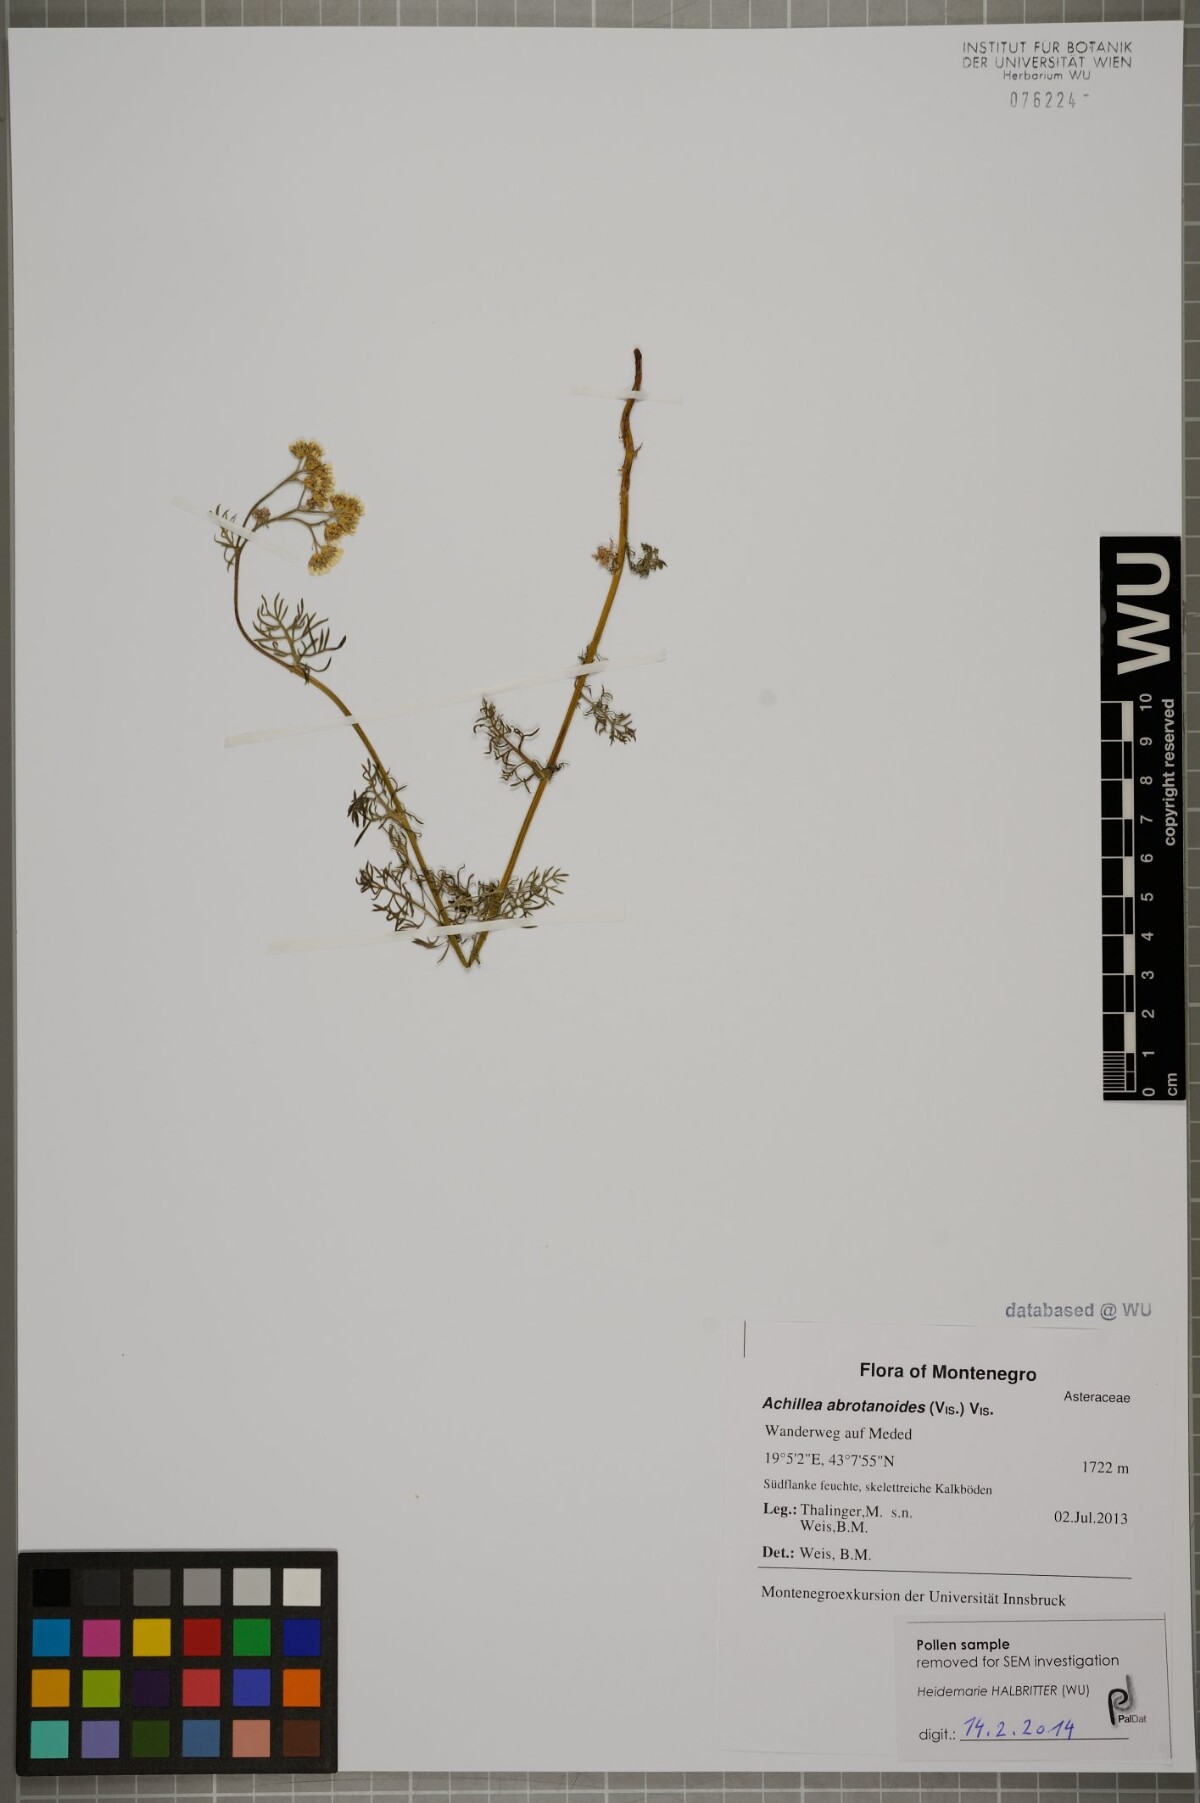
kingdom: Plantae
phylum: Tracheophyta
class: Magnoliopsida
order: Asterales
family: Asteraceae
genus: Achillea
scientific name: Achillea abrotanoides
